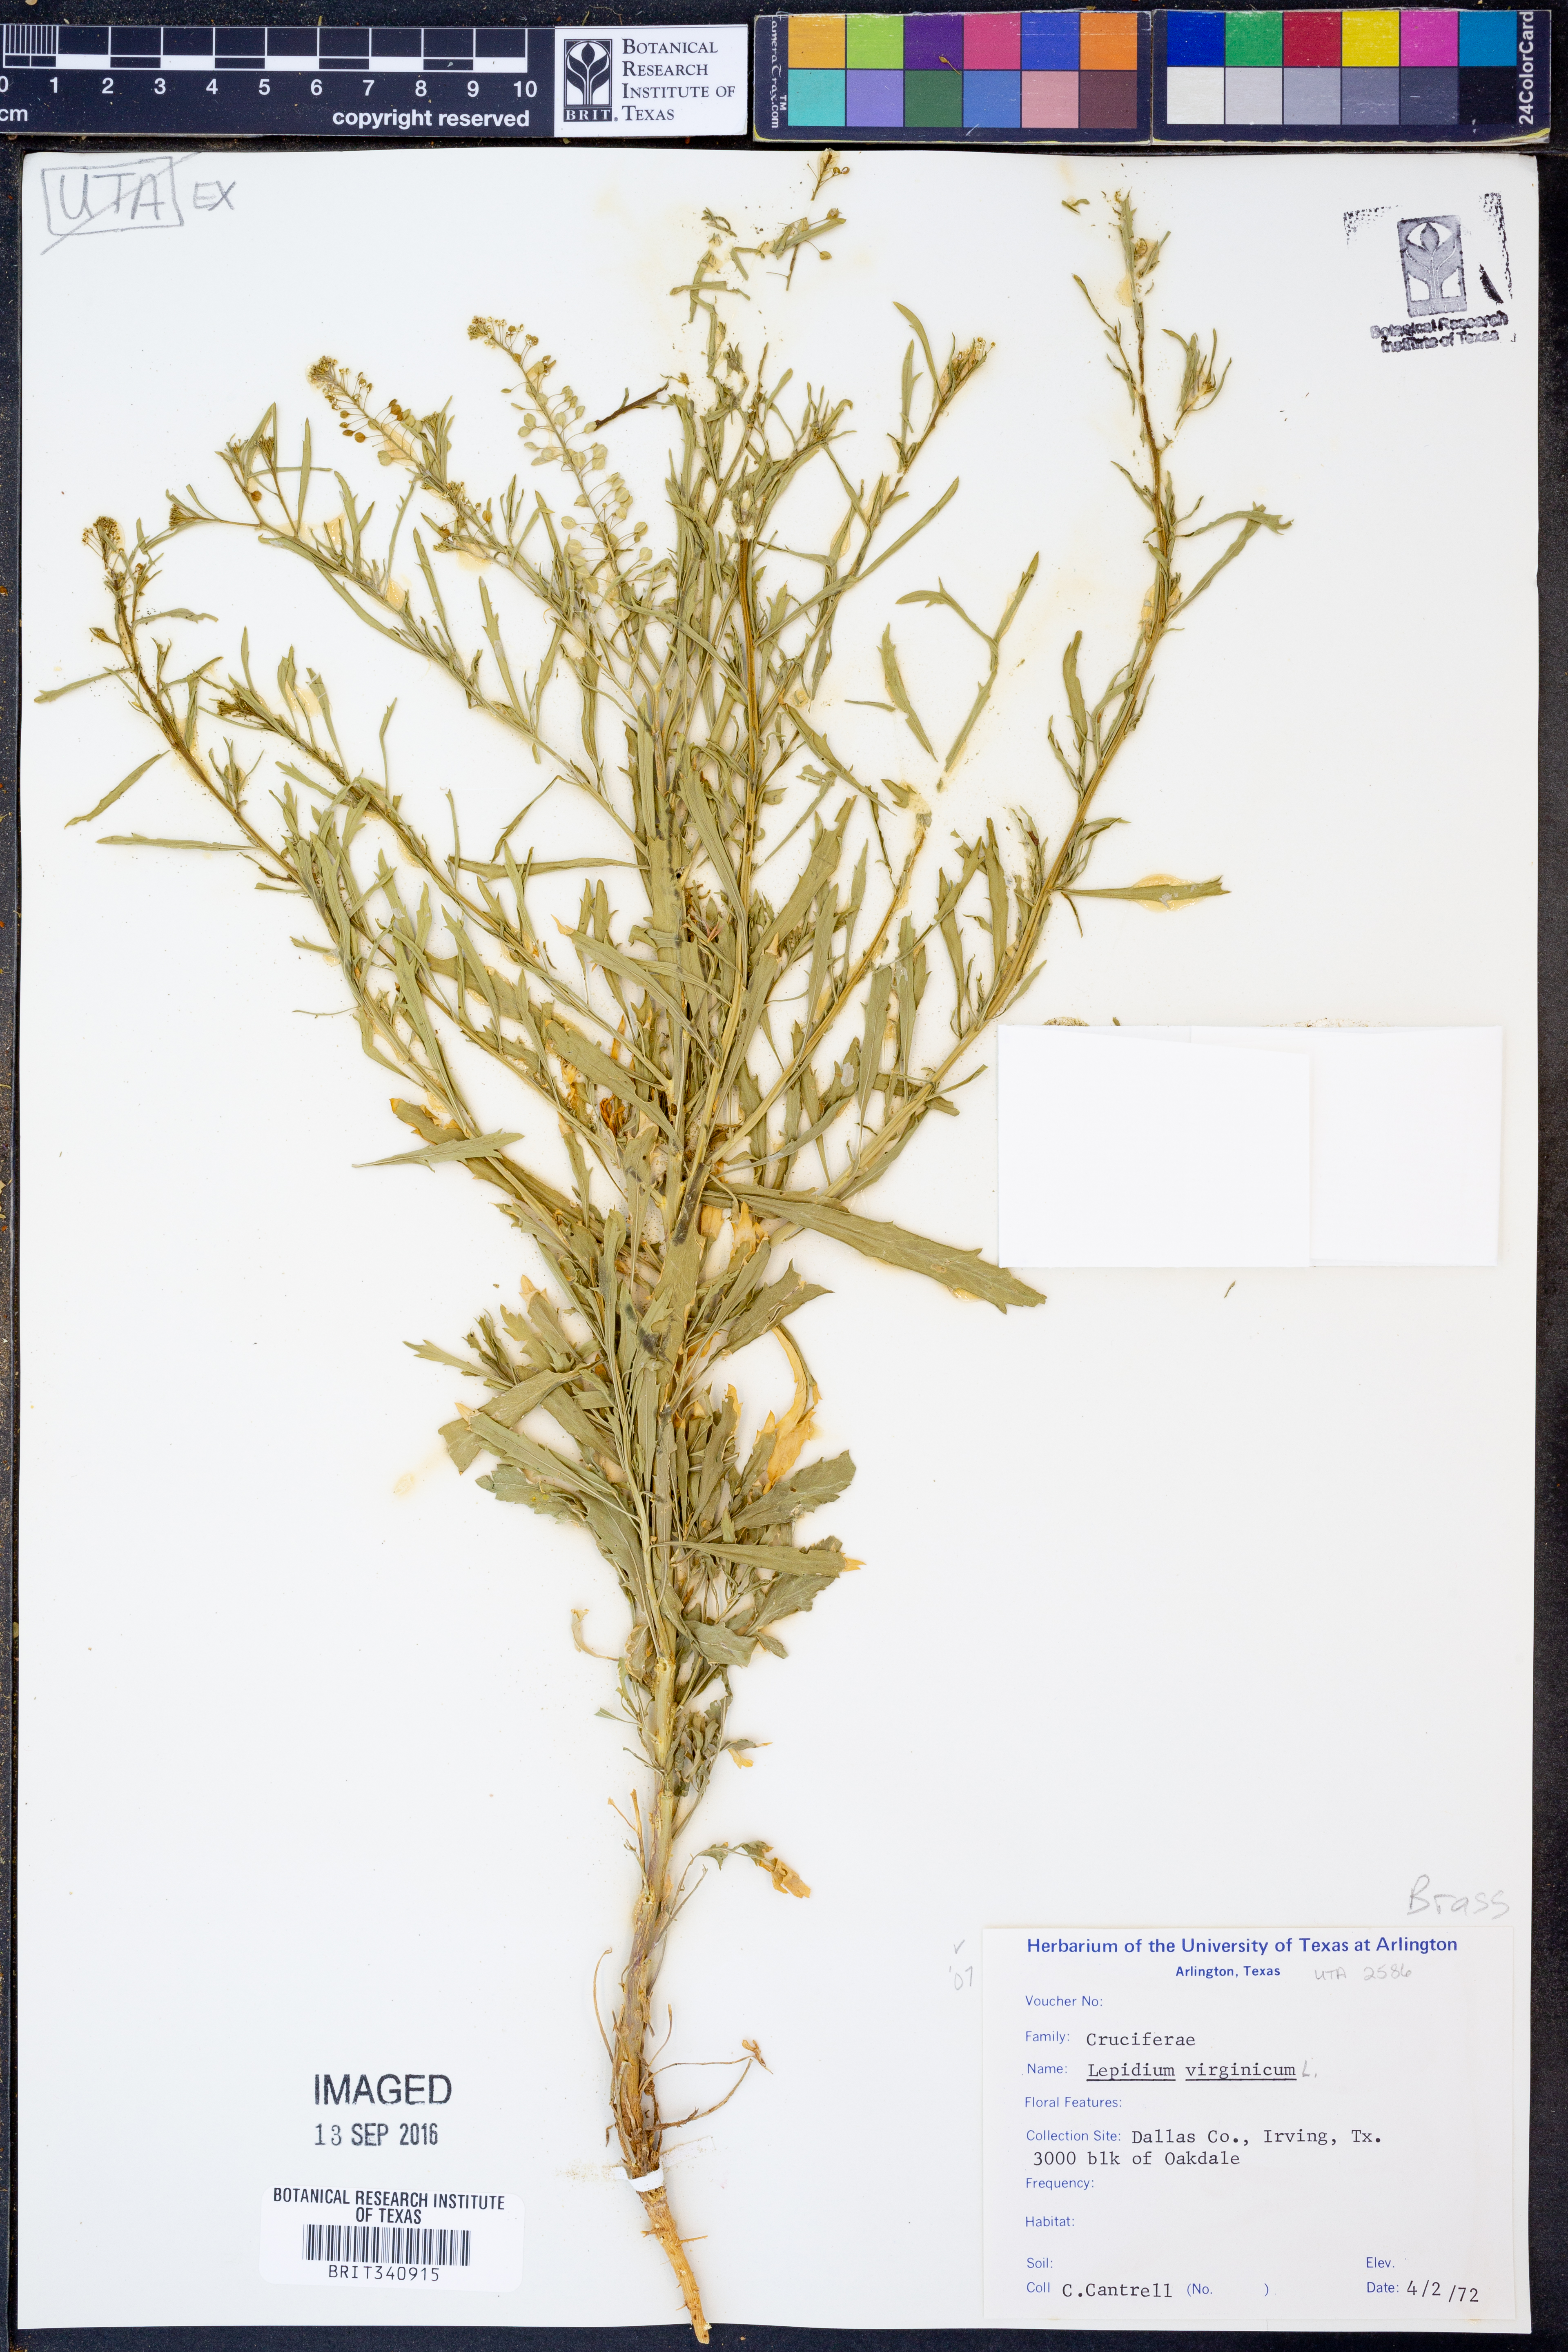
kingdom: Plantae
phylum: Tracheophyta
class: Magnoliopsida
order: Brassicales
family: Brassicaceae
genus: Lepidium
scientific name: Lepidium virginicum
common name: Least pepperwort
